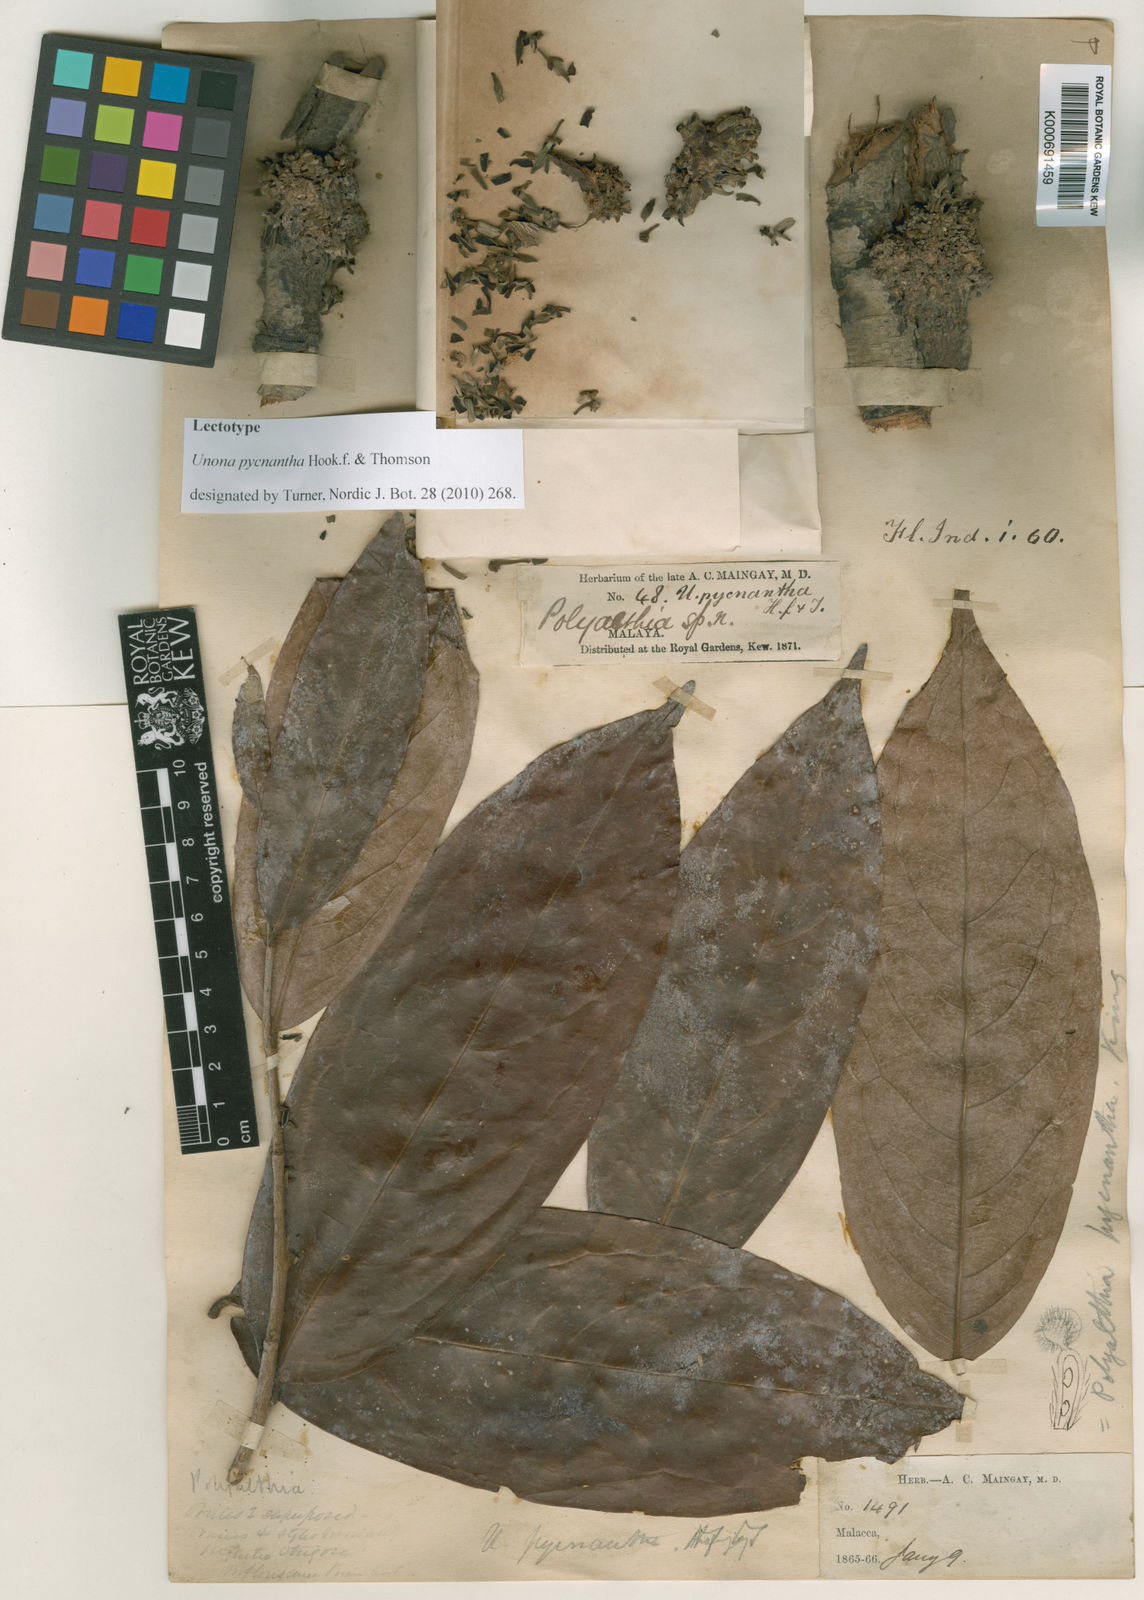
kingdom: Plantae
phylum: Tracheophyta
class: Magnoliopsida
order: Magnoliales
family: Annonaceae
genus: Polyalthia
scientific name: Polyalthia cauliflora
